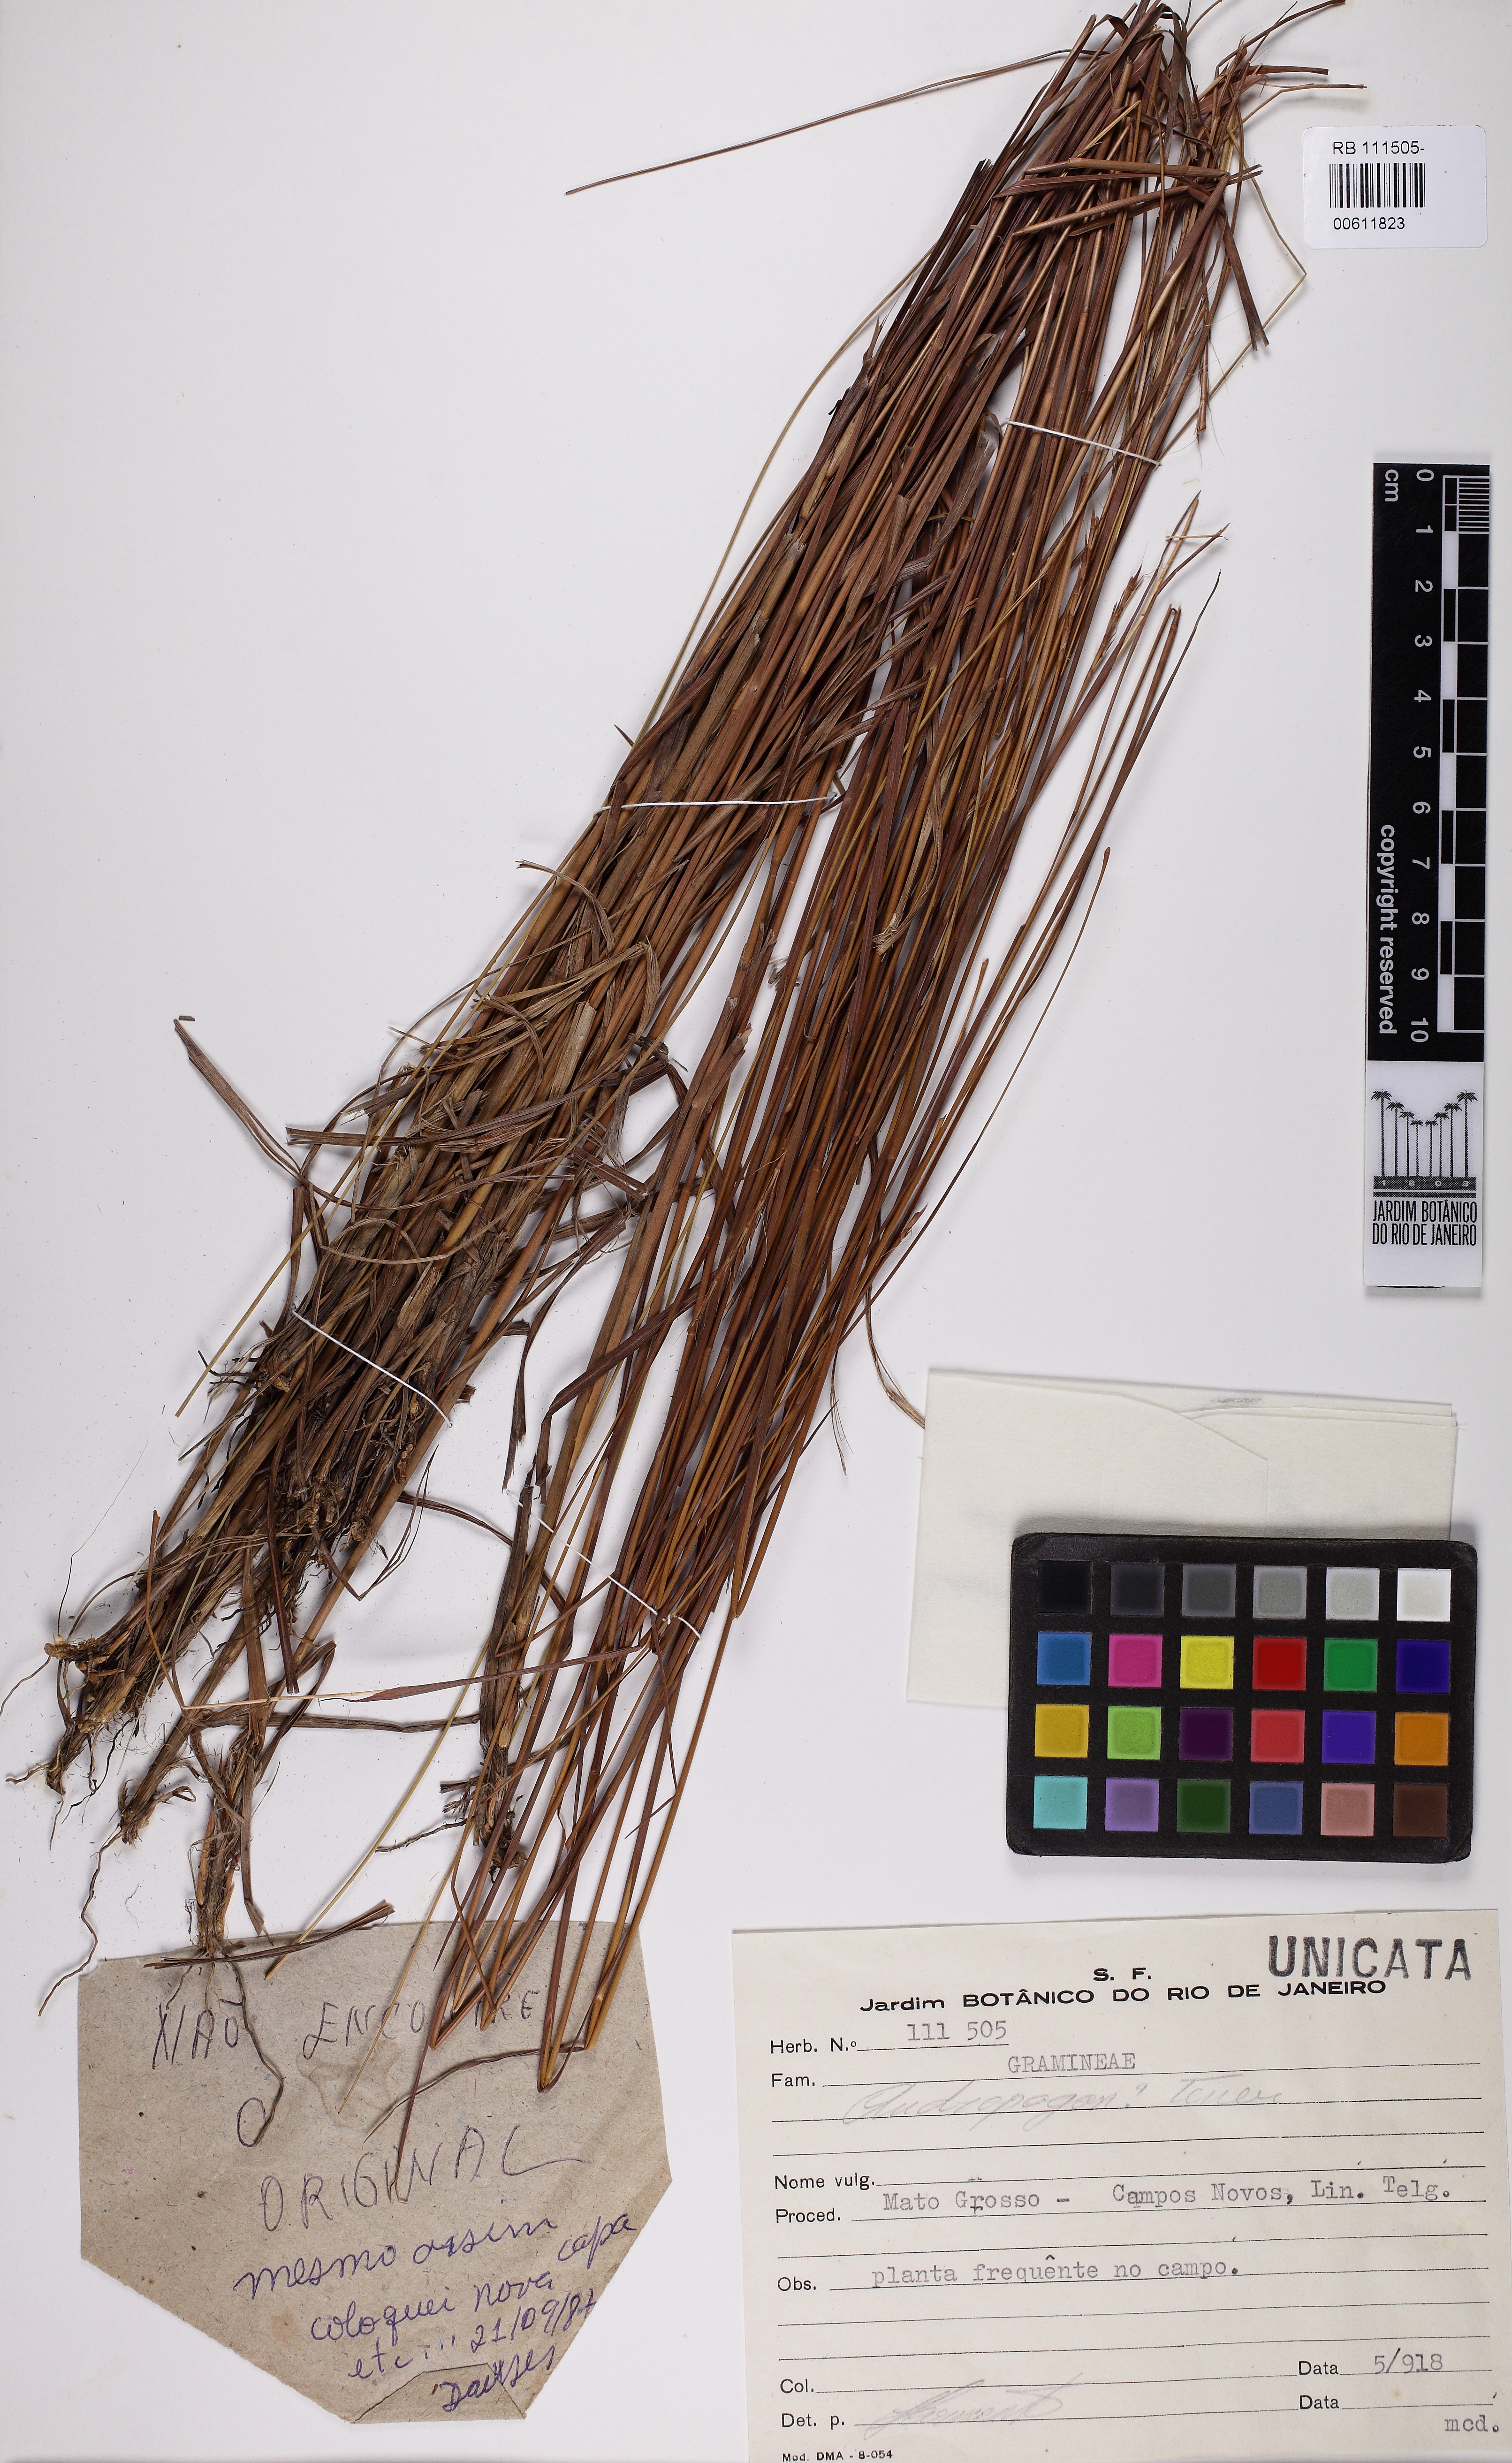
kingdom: Plantae
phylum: Tracheophyta
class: Liliopsida
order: Poales
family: Poaceae
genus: Andropogon
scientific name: Andropogon tener
